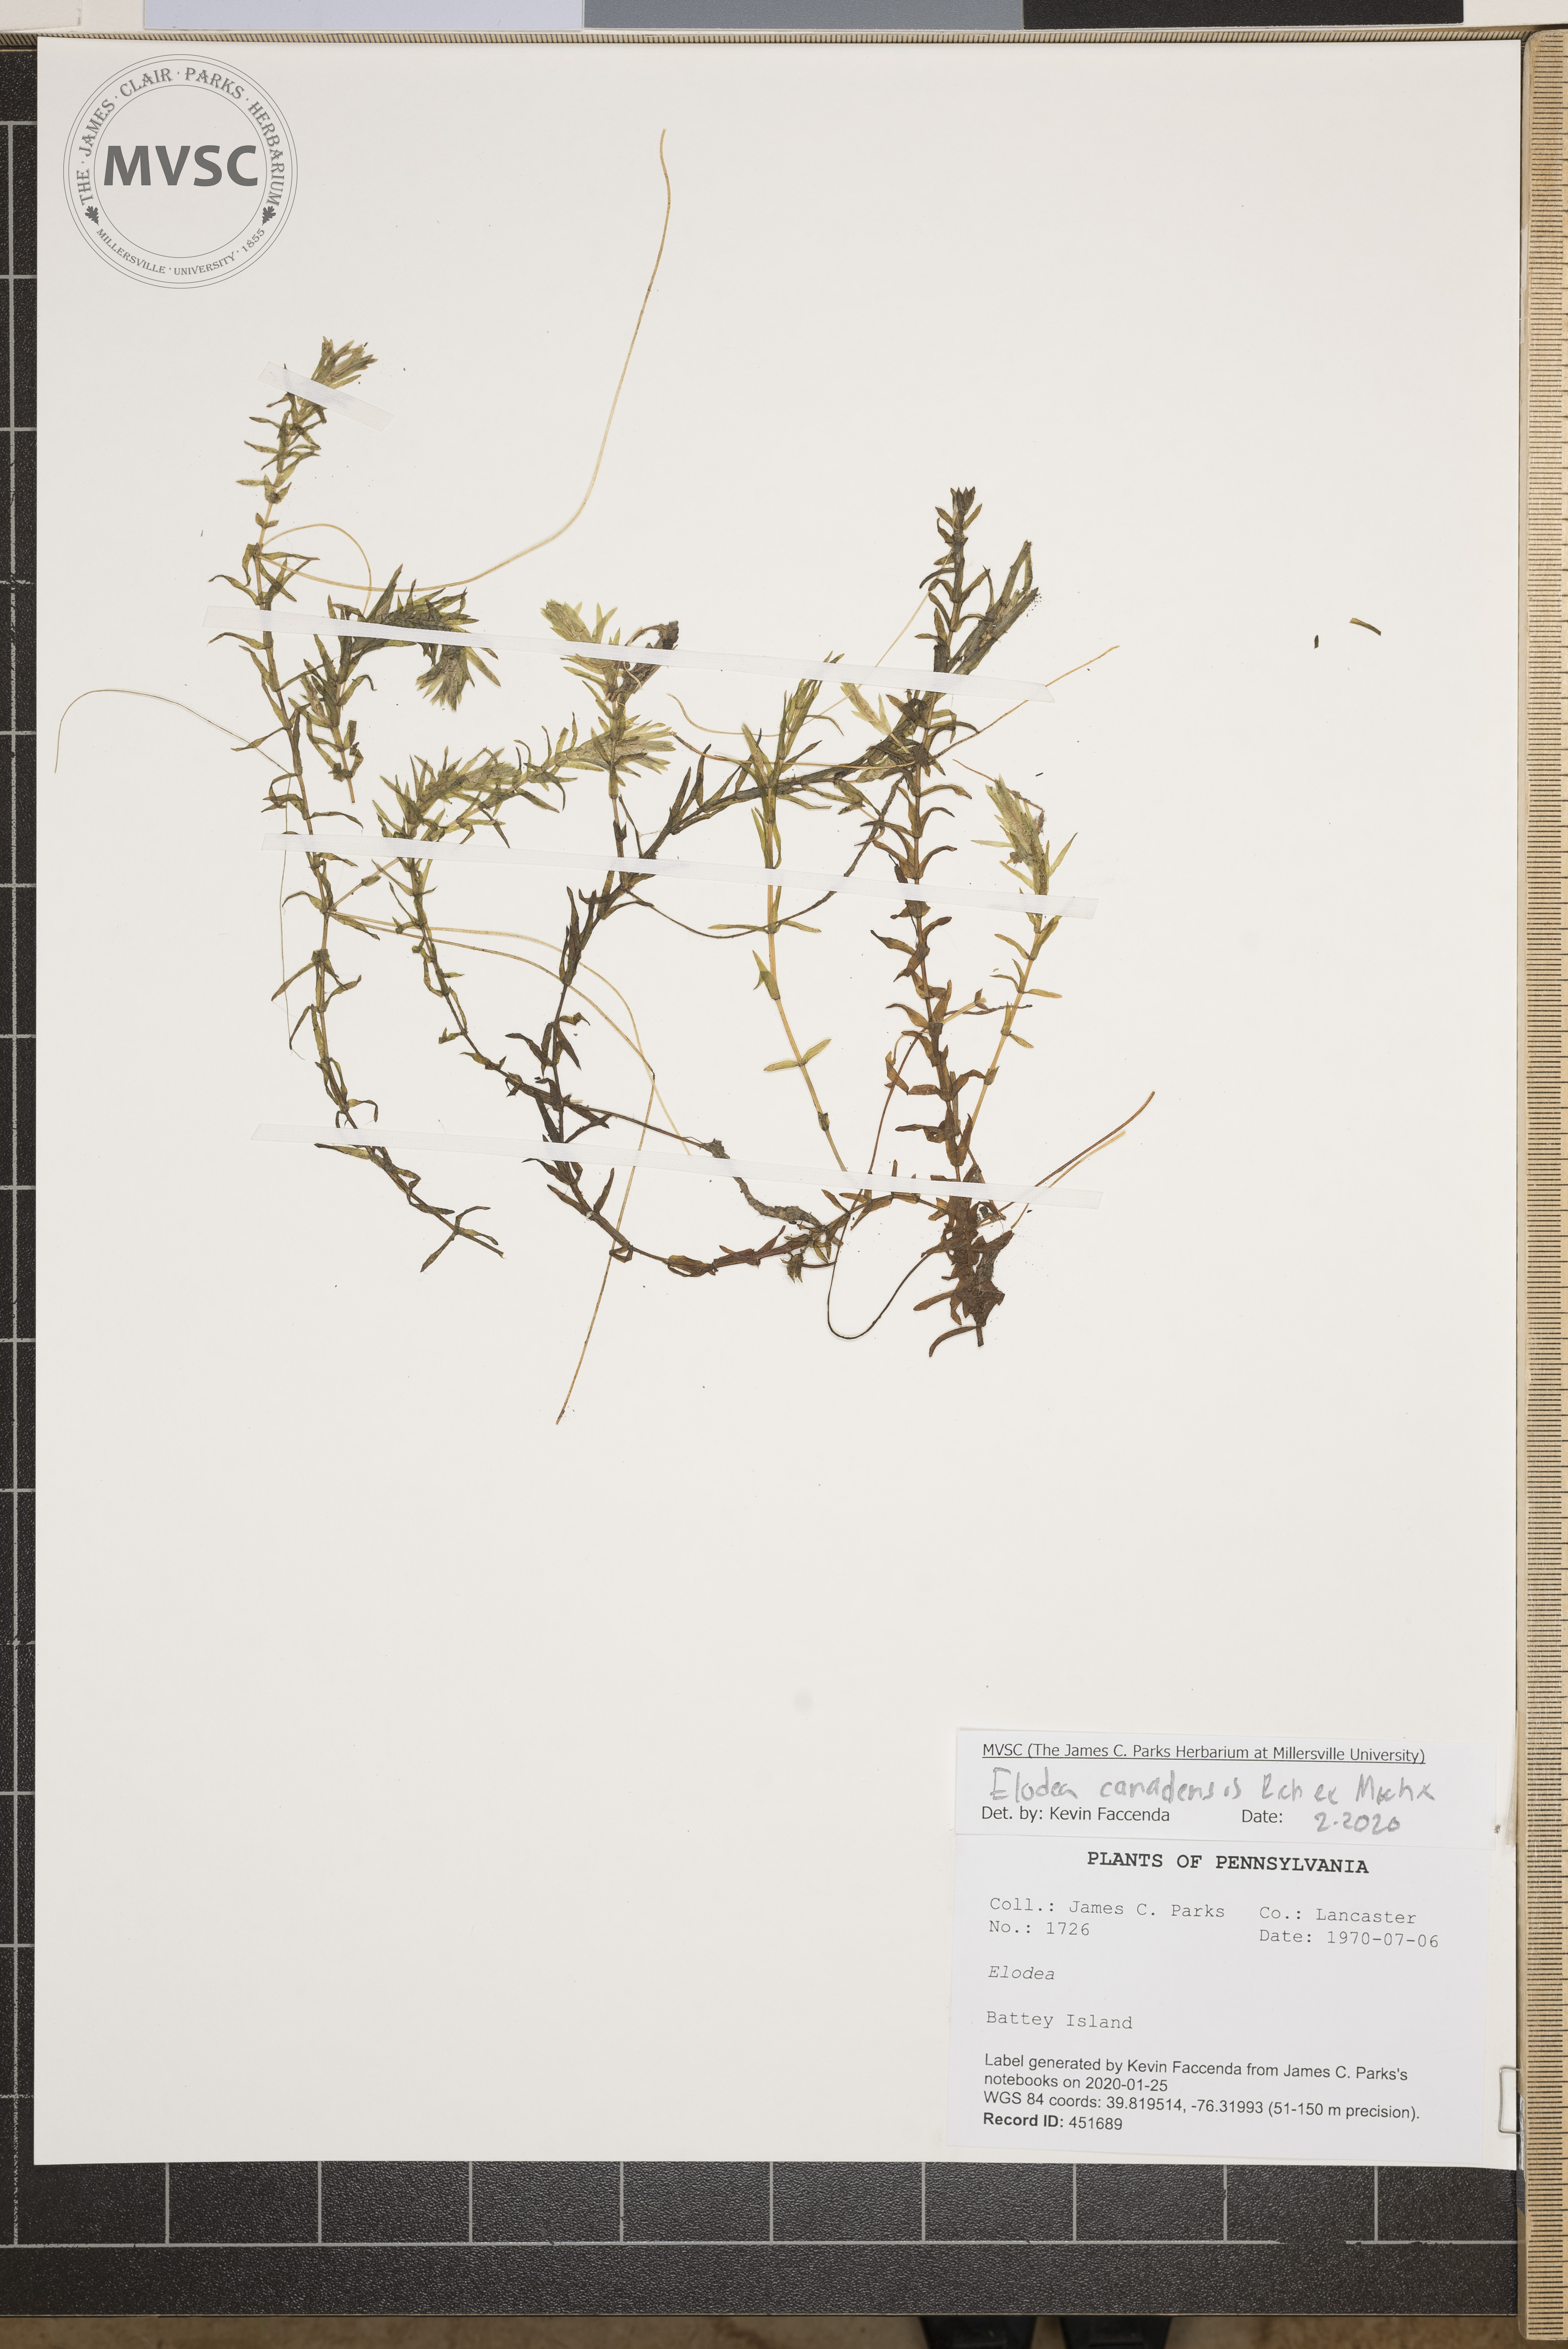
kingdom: Plantae
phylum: Tracheophyta
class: Liliopsida
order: Alismatales
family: Hydrocharitaceae
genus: Elodea
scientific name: Elodea canadensis
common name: Canadian waterweed
